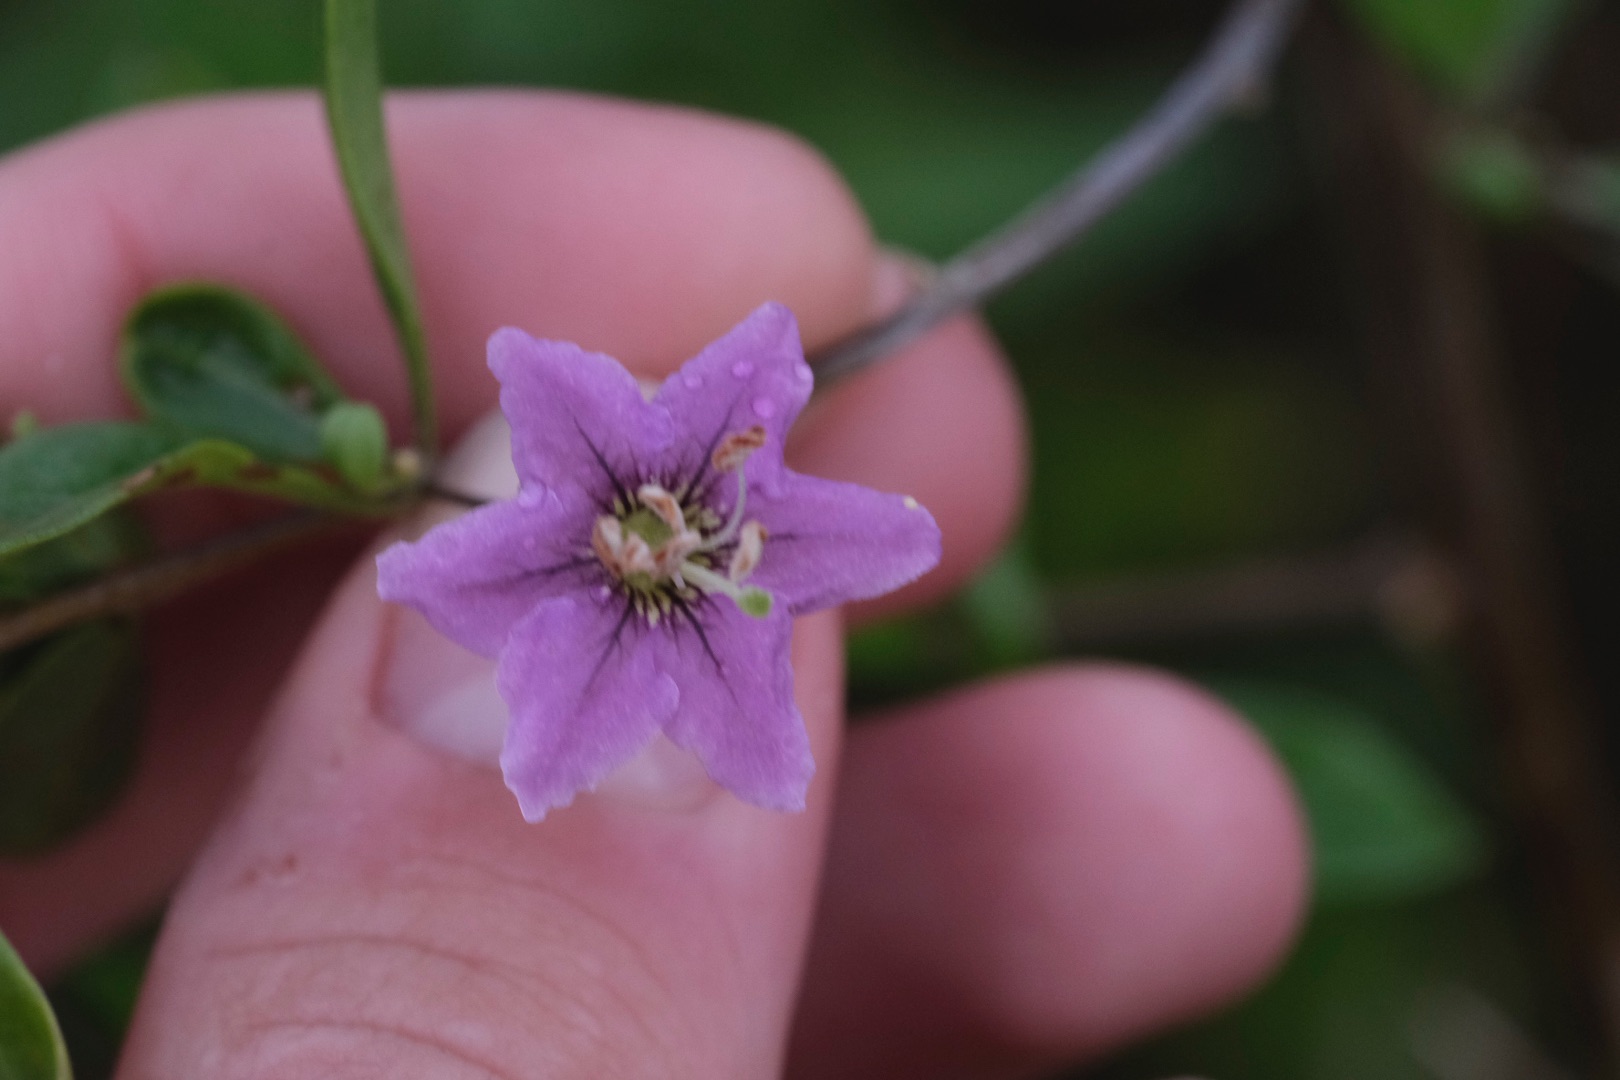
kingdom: Plantae
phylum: Tracheophyta
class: Magnoliopsida
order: Solanales
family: Solanaceae
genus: Lycium
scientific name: Lycium barbarum
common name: Bukketorn
